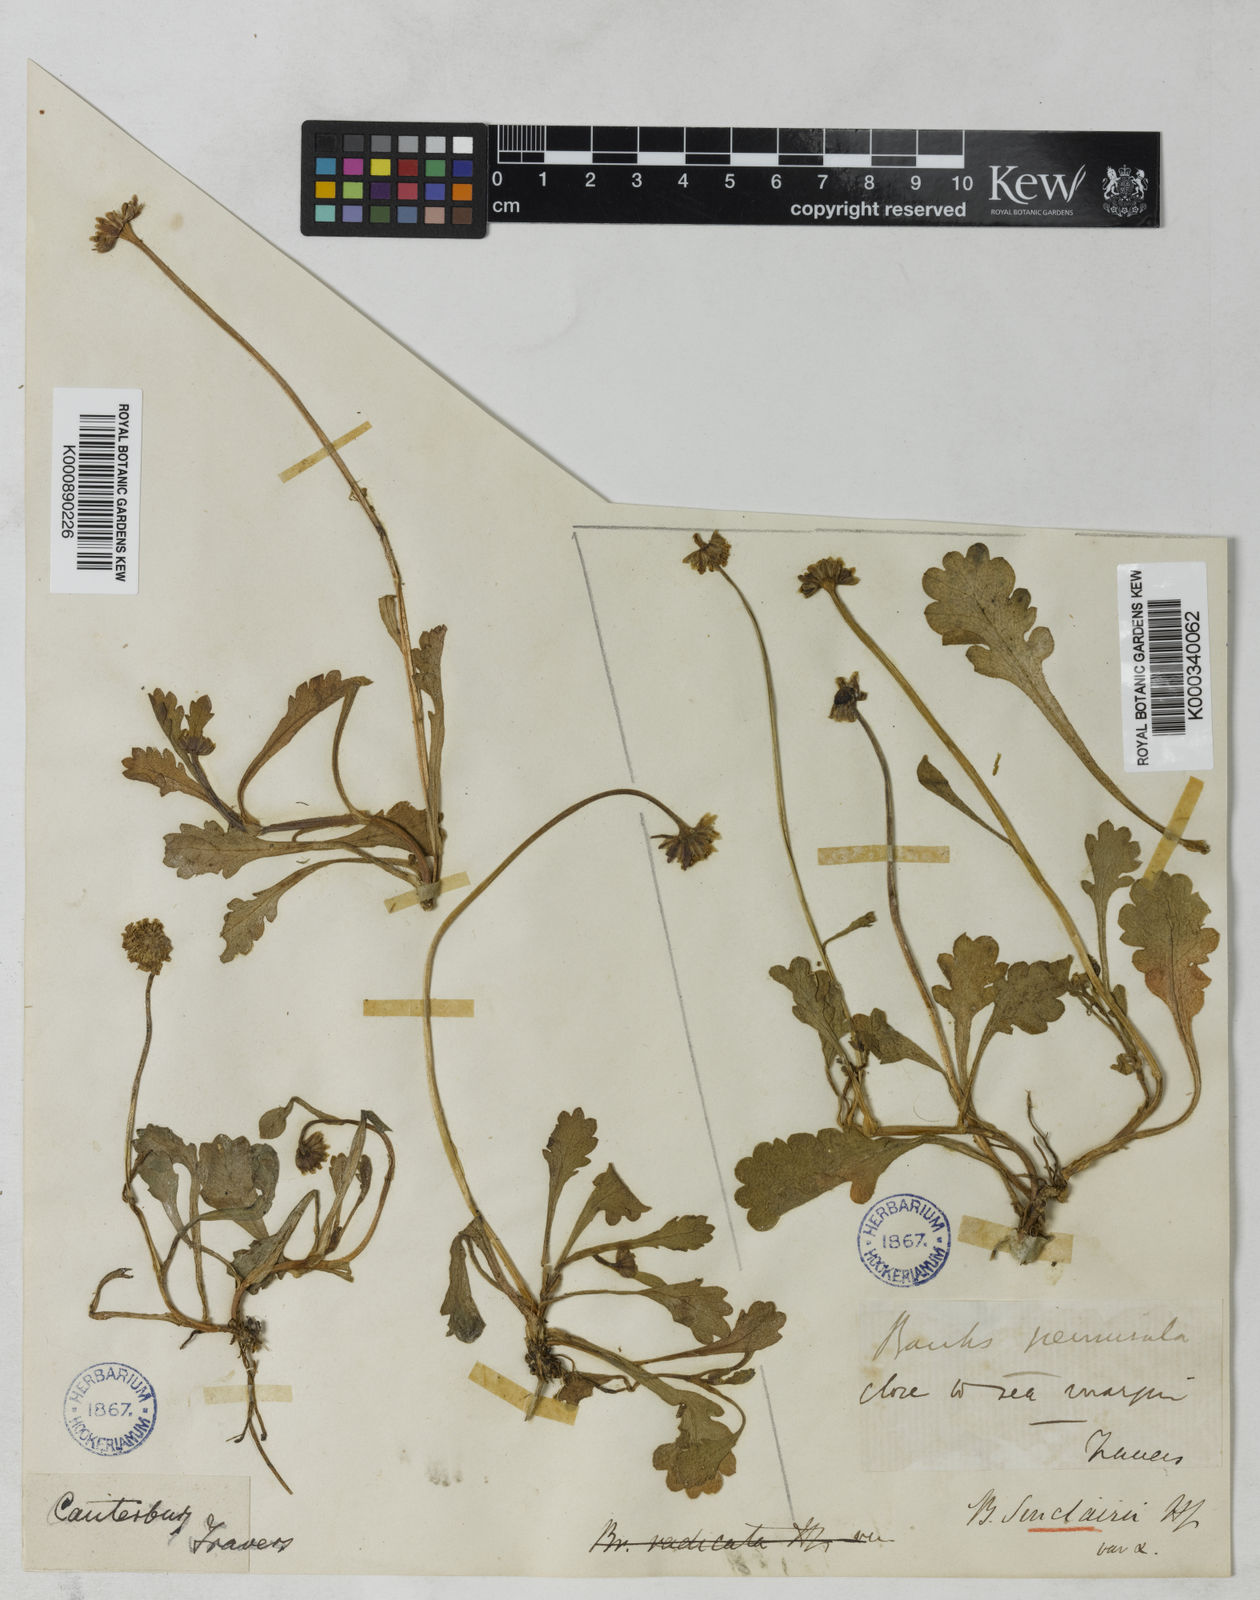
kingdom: Plantae
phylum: Tracheophyta
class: Magnoliopsida
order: Asterales
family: Asteraceae
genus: Brachyscome
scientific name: Brachyscome sinclairii
